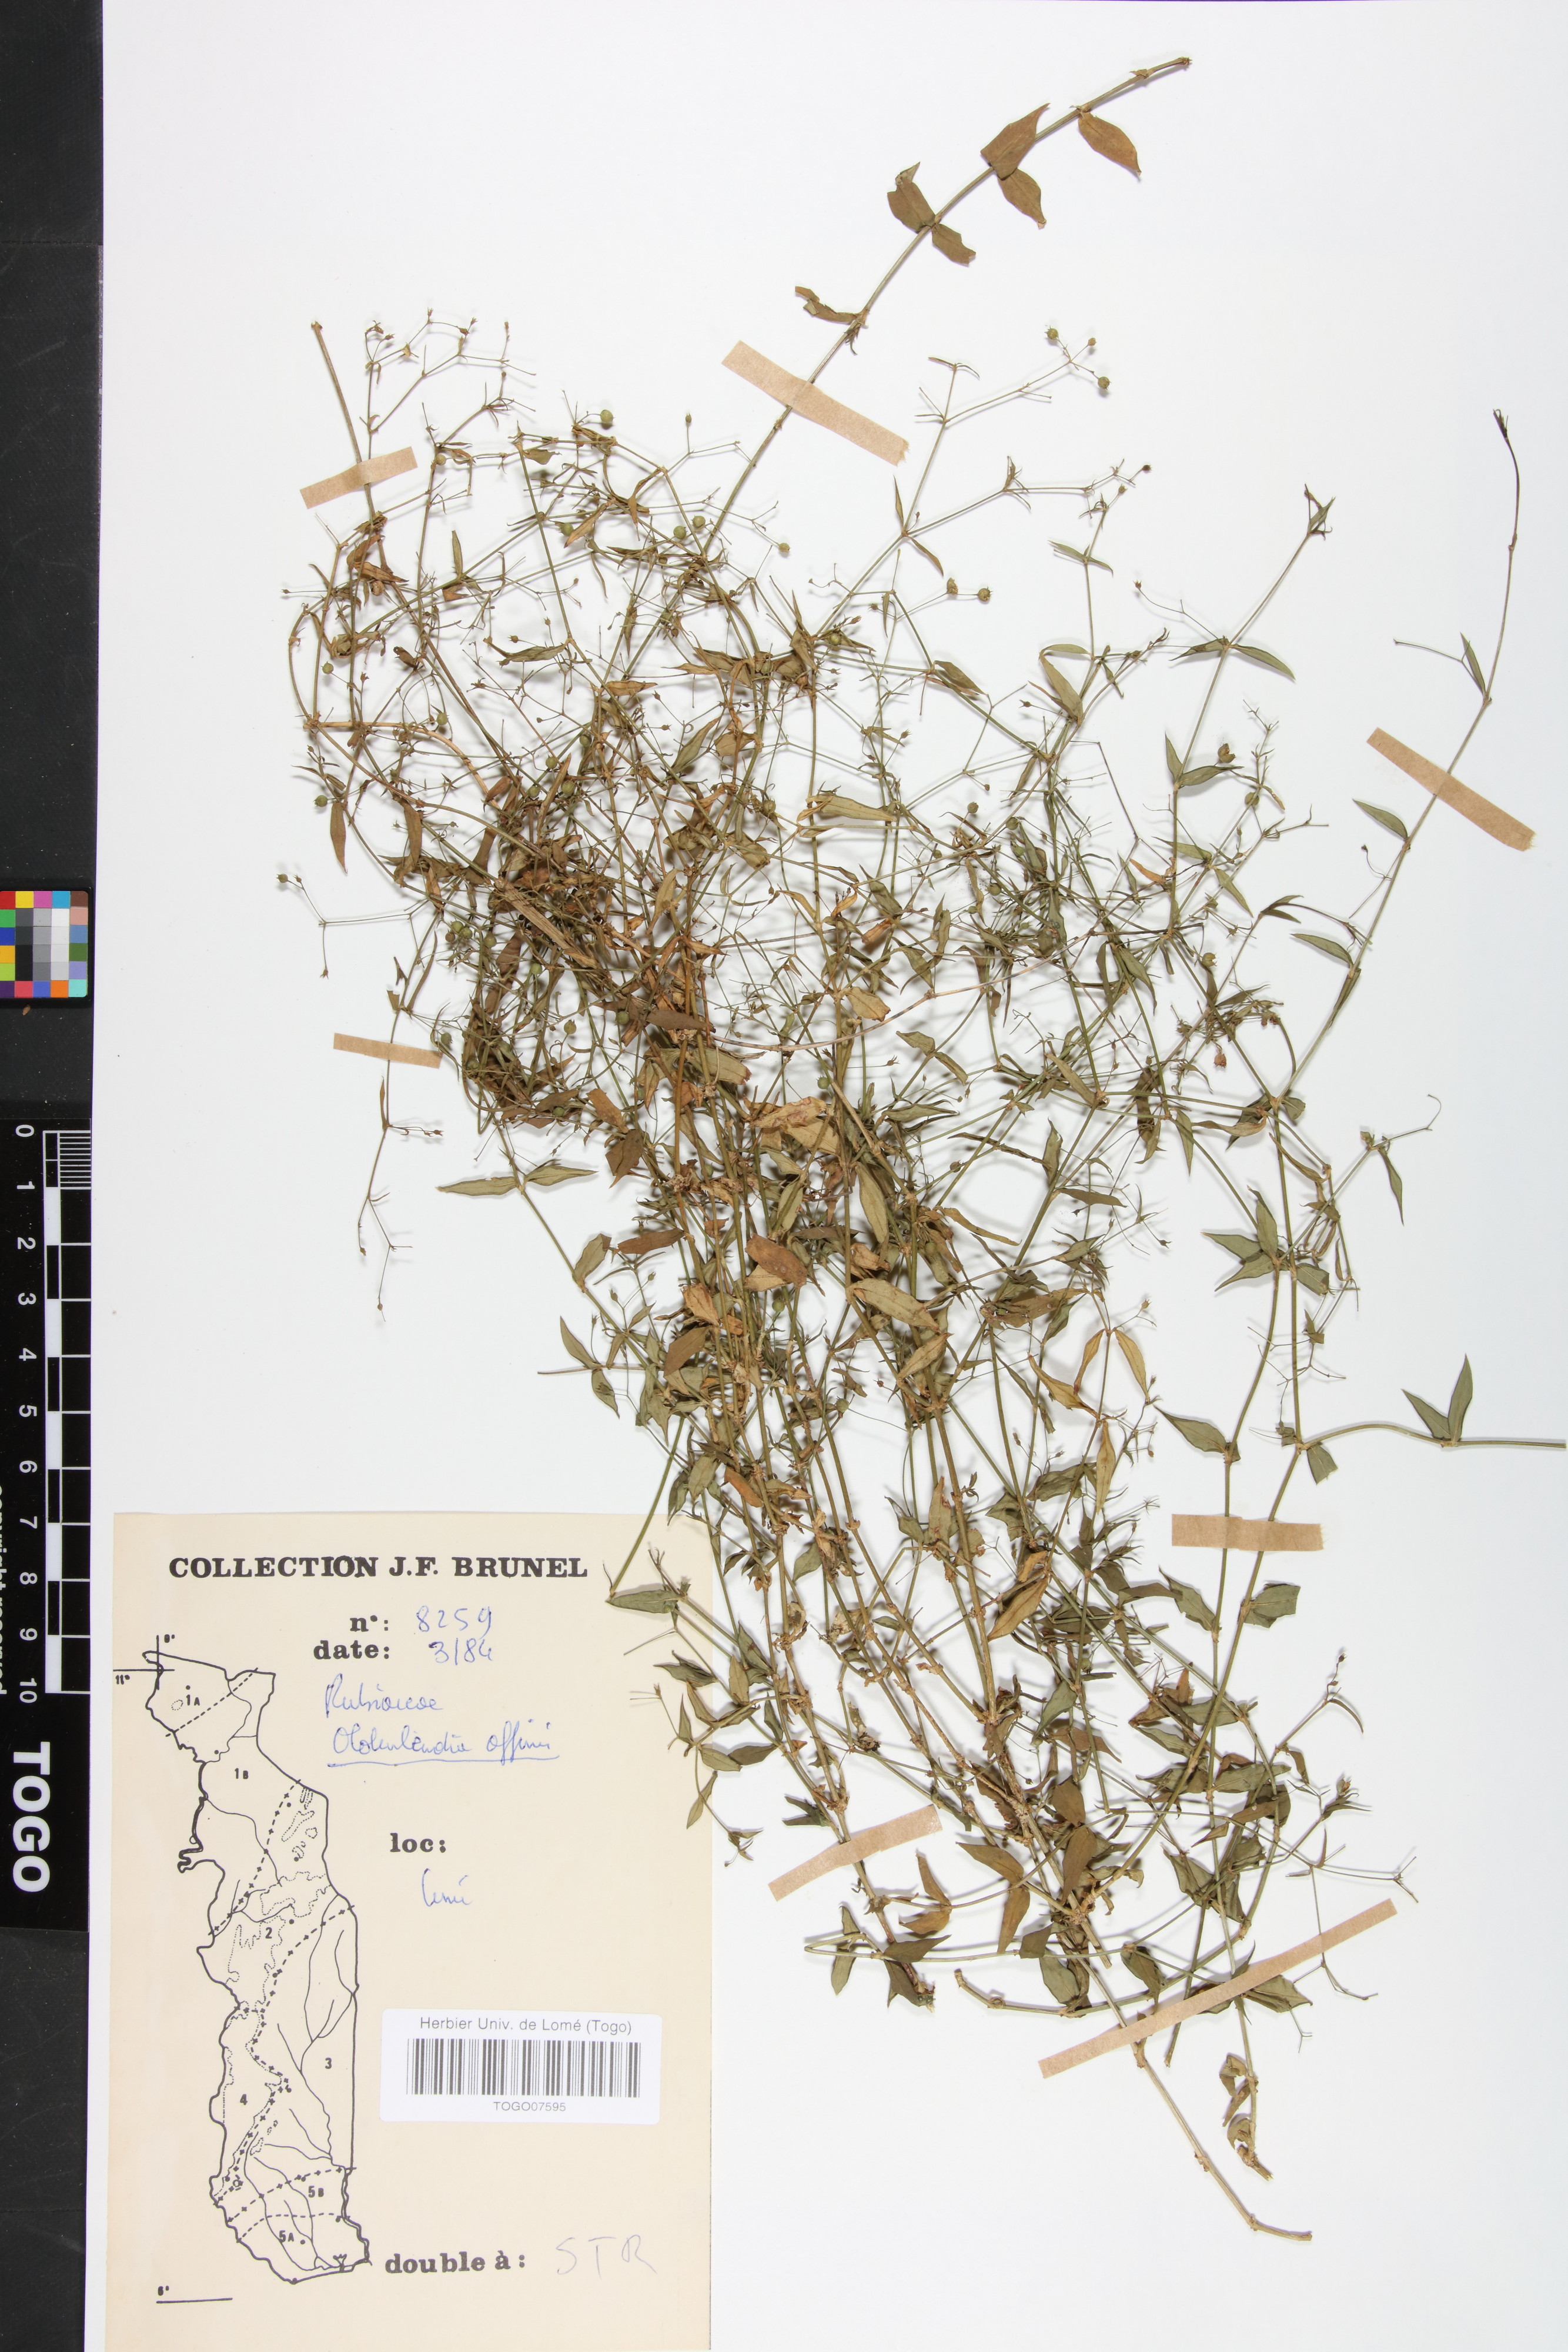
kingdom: Plantae
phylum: Tracheophyta
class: Magnoliopsida
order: Gentianales
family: Rubiaceae
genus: Oldenlandia
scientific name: Oldenlandia affinis
